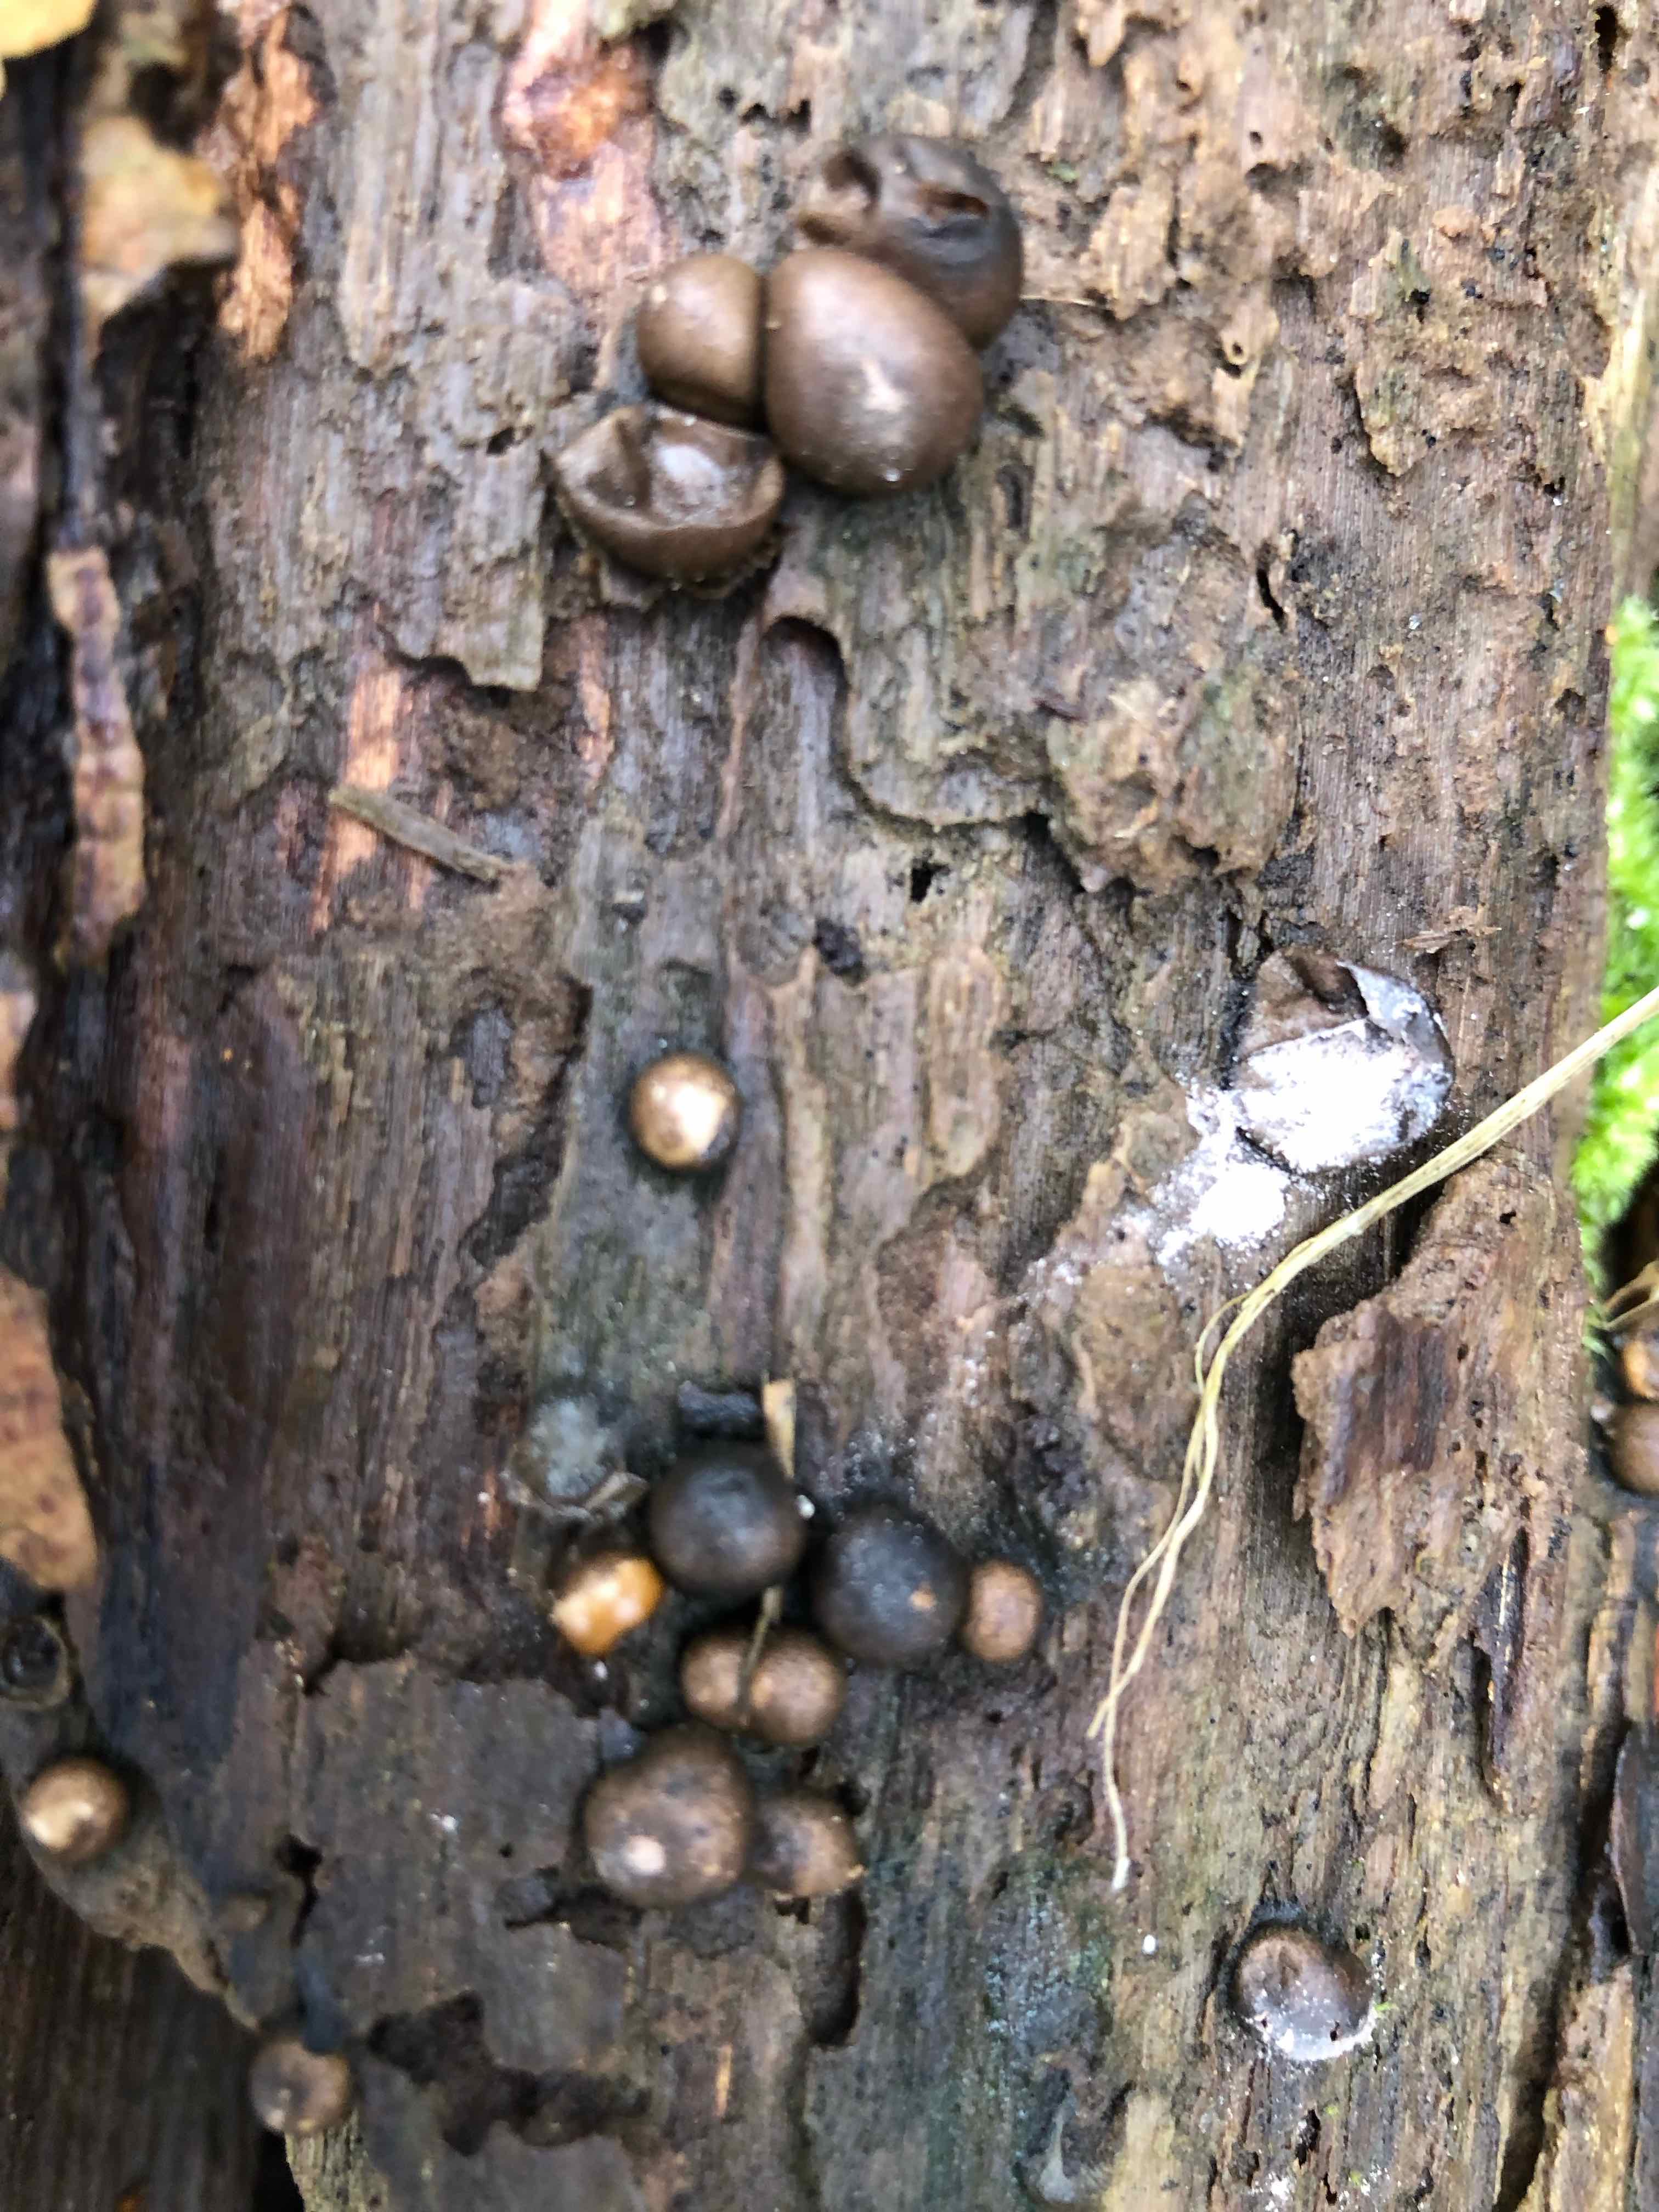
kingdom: Protozoa
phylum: Mycetozoa
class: Myxomycetes
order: Cribrariales
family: Tubiferaceae
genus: Lycogala
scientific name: Lycogala epidendrum
